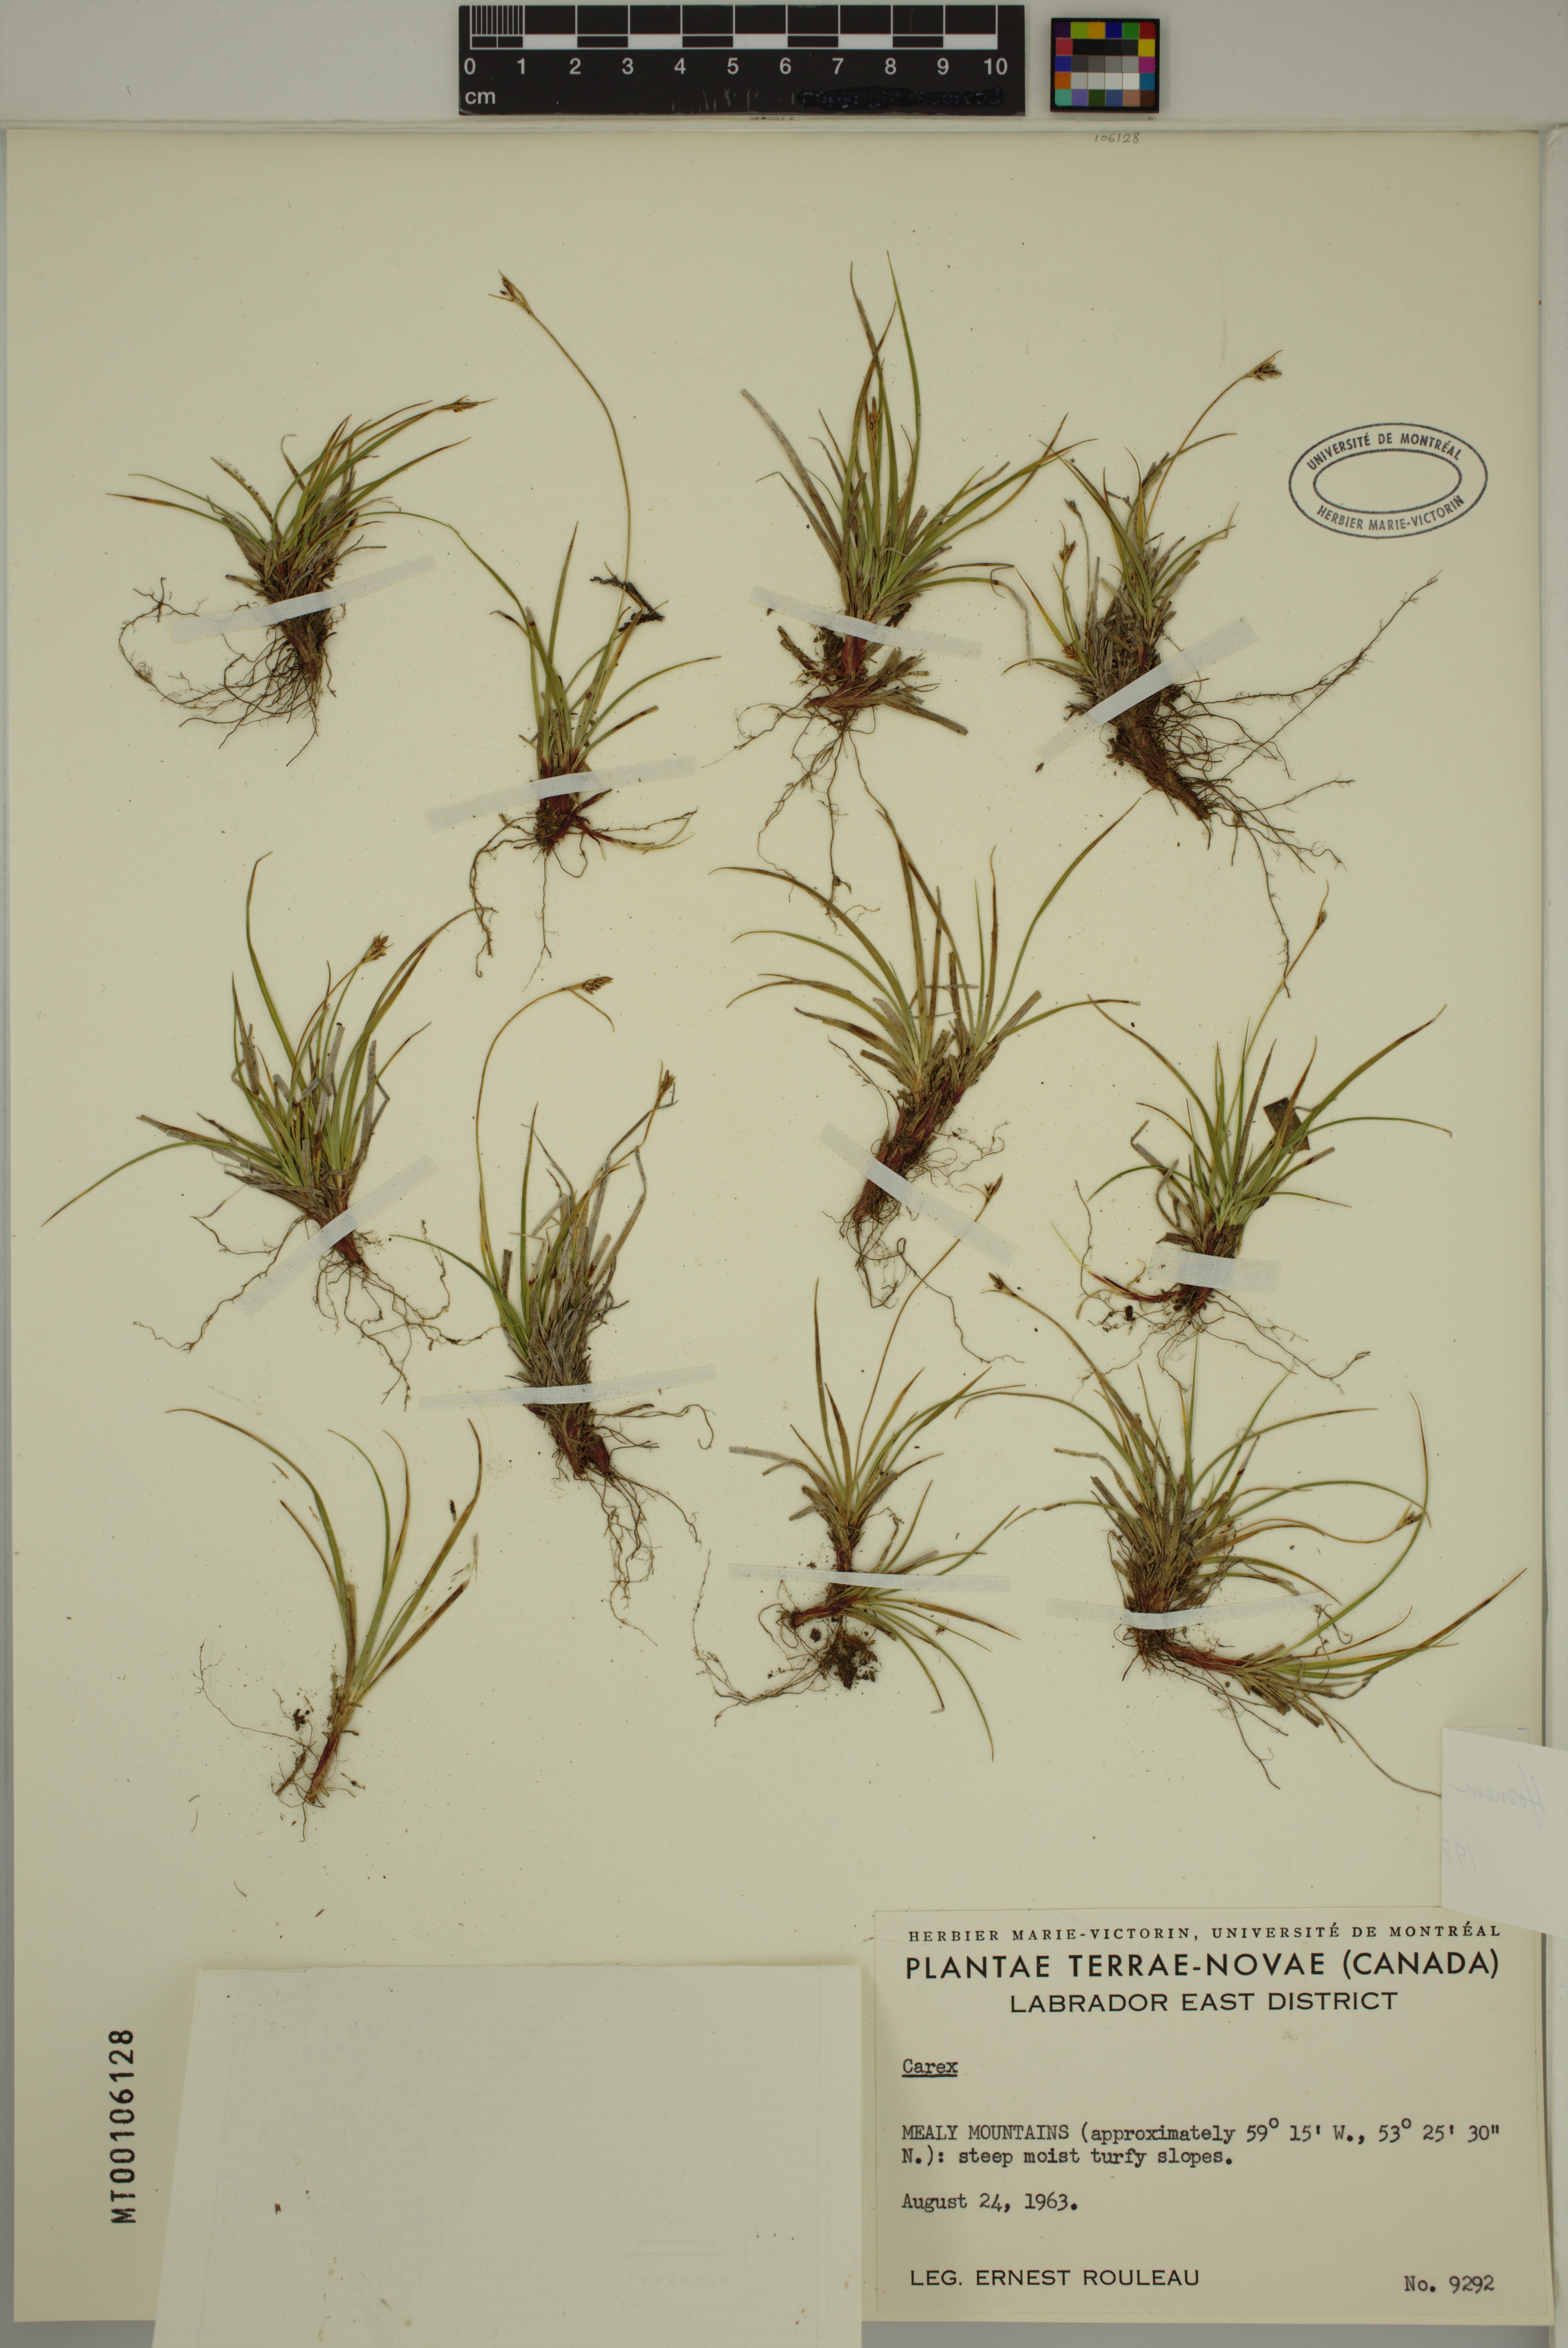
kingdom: Plantae
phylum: Tracheophyta
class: Liliopsida
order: Poales
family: Cyperaceae
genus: Carex
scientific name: Carex deflexa
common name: Bent northern sedge
